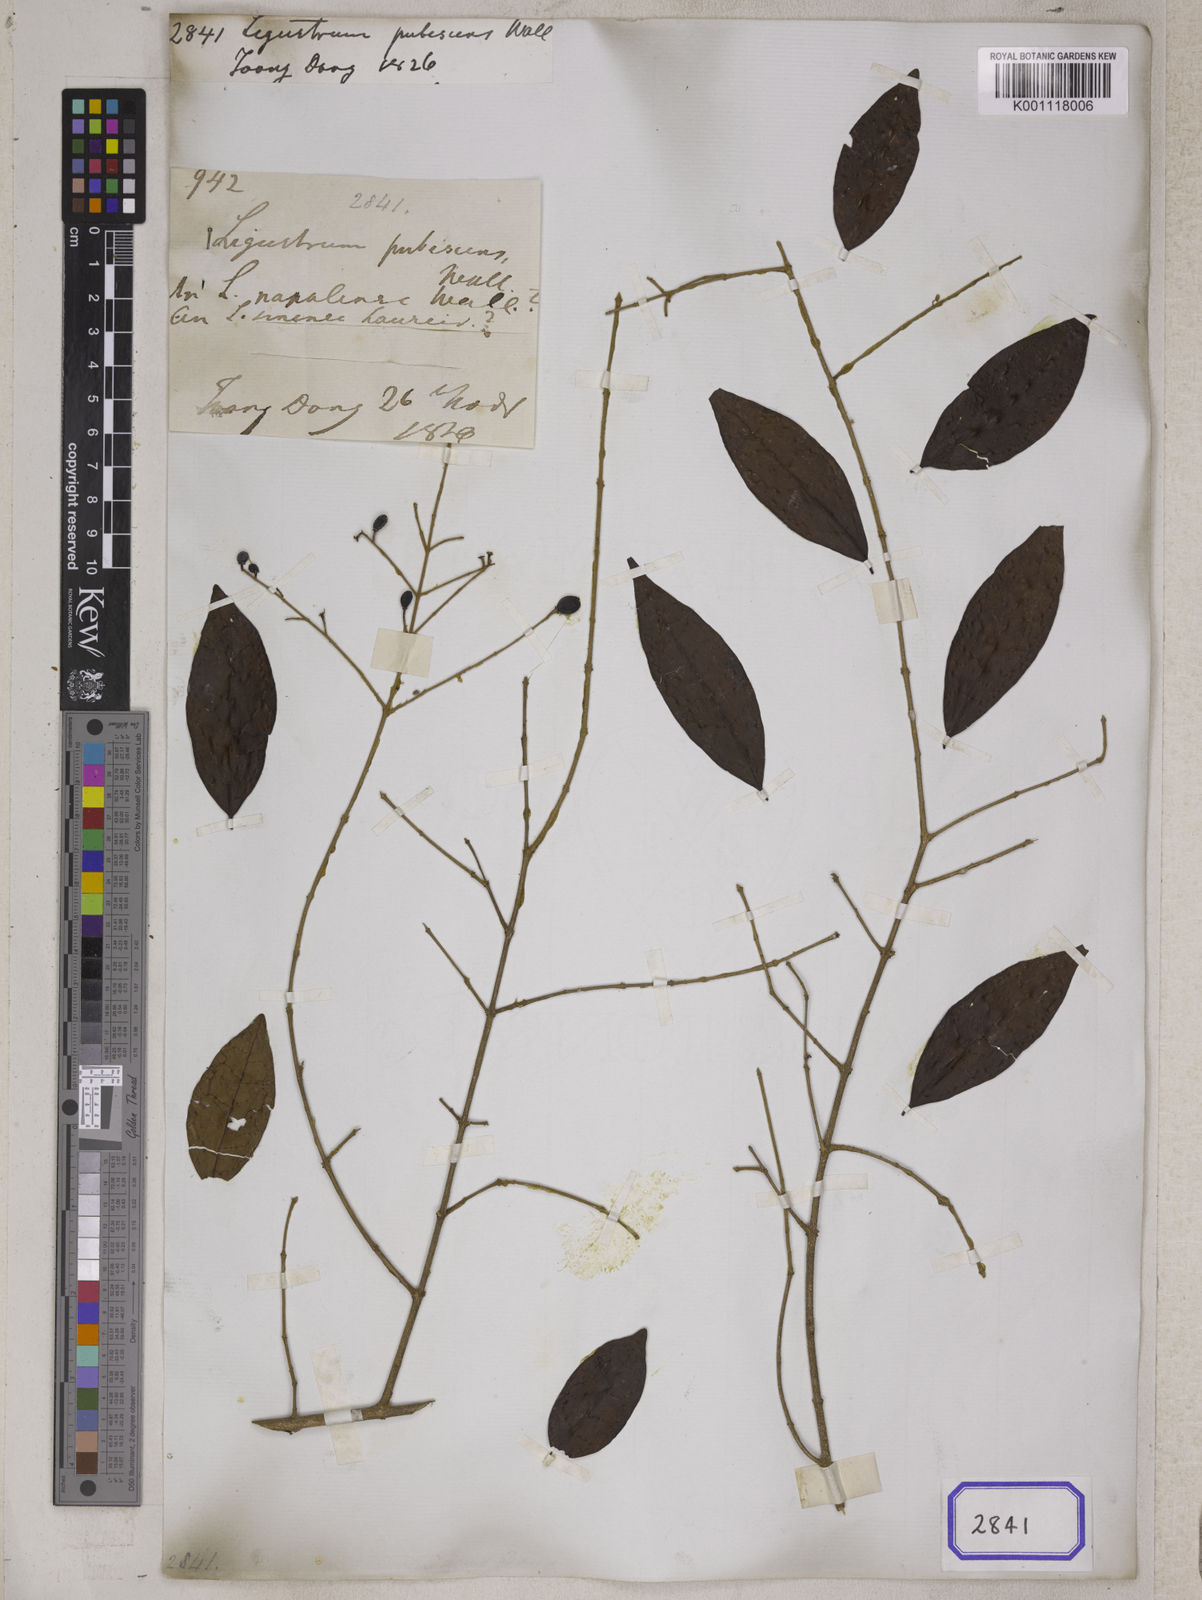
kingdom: Plantae
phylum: Tracheophyta
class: Magnoliopsida
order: Lamiales
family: Oleaceae
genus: Ligustrum
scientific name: Ligustrum robustum
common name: Tree privet
